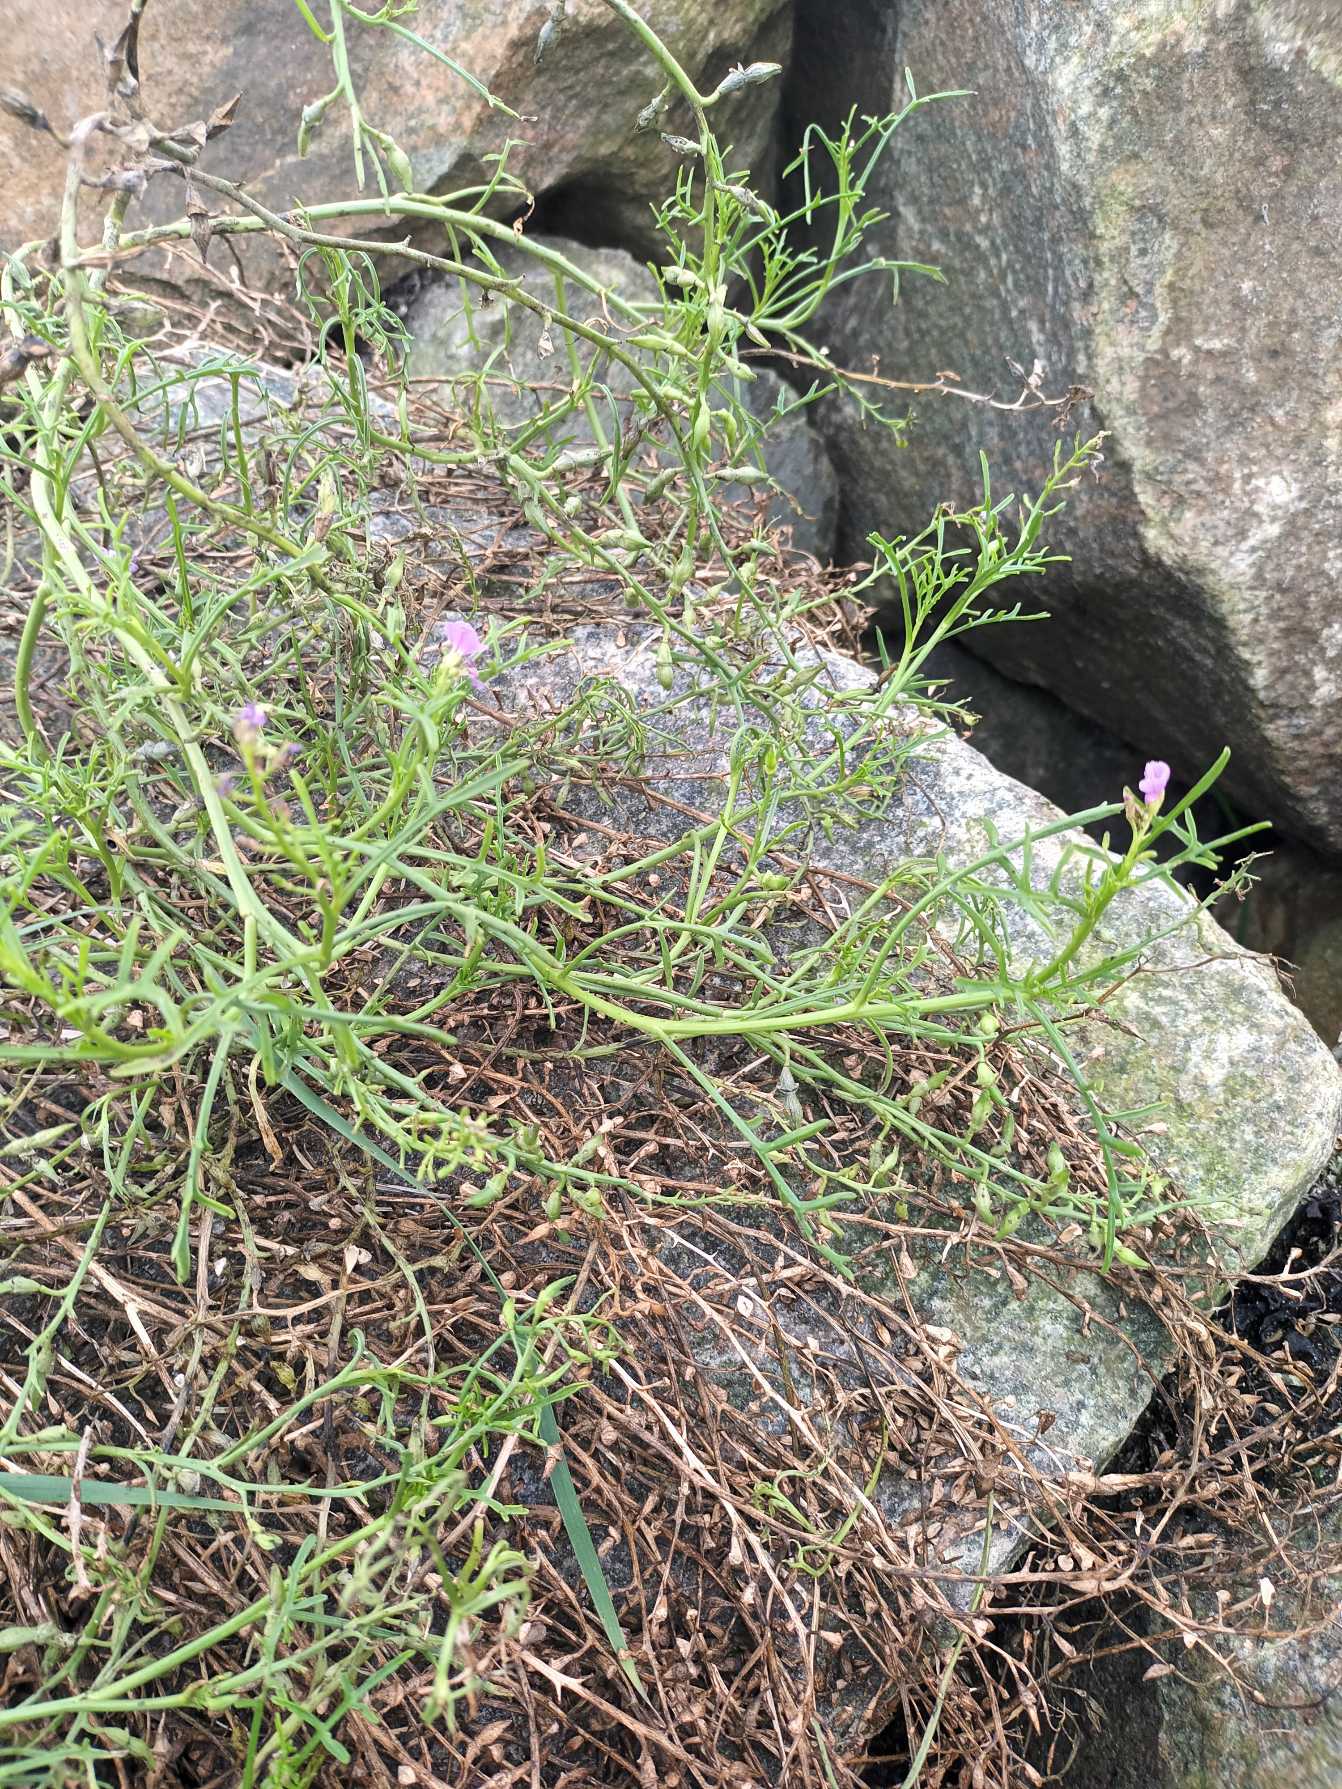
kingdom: Plantae
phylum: Tracheophyta
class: Magnoliopsida
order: Brassicales
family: Brassicaceae
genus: Cakile
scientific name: Cakile maritima
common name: Strandsennep
